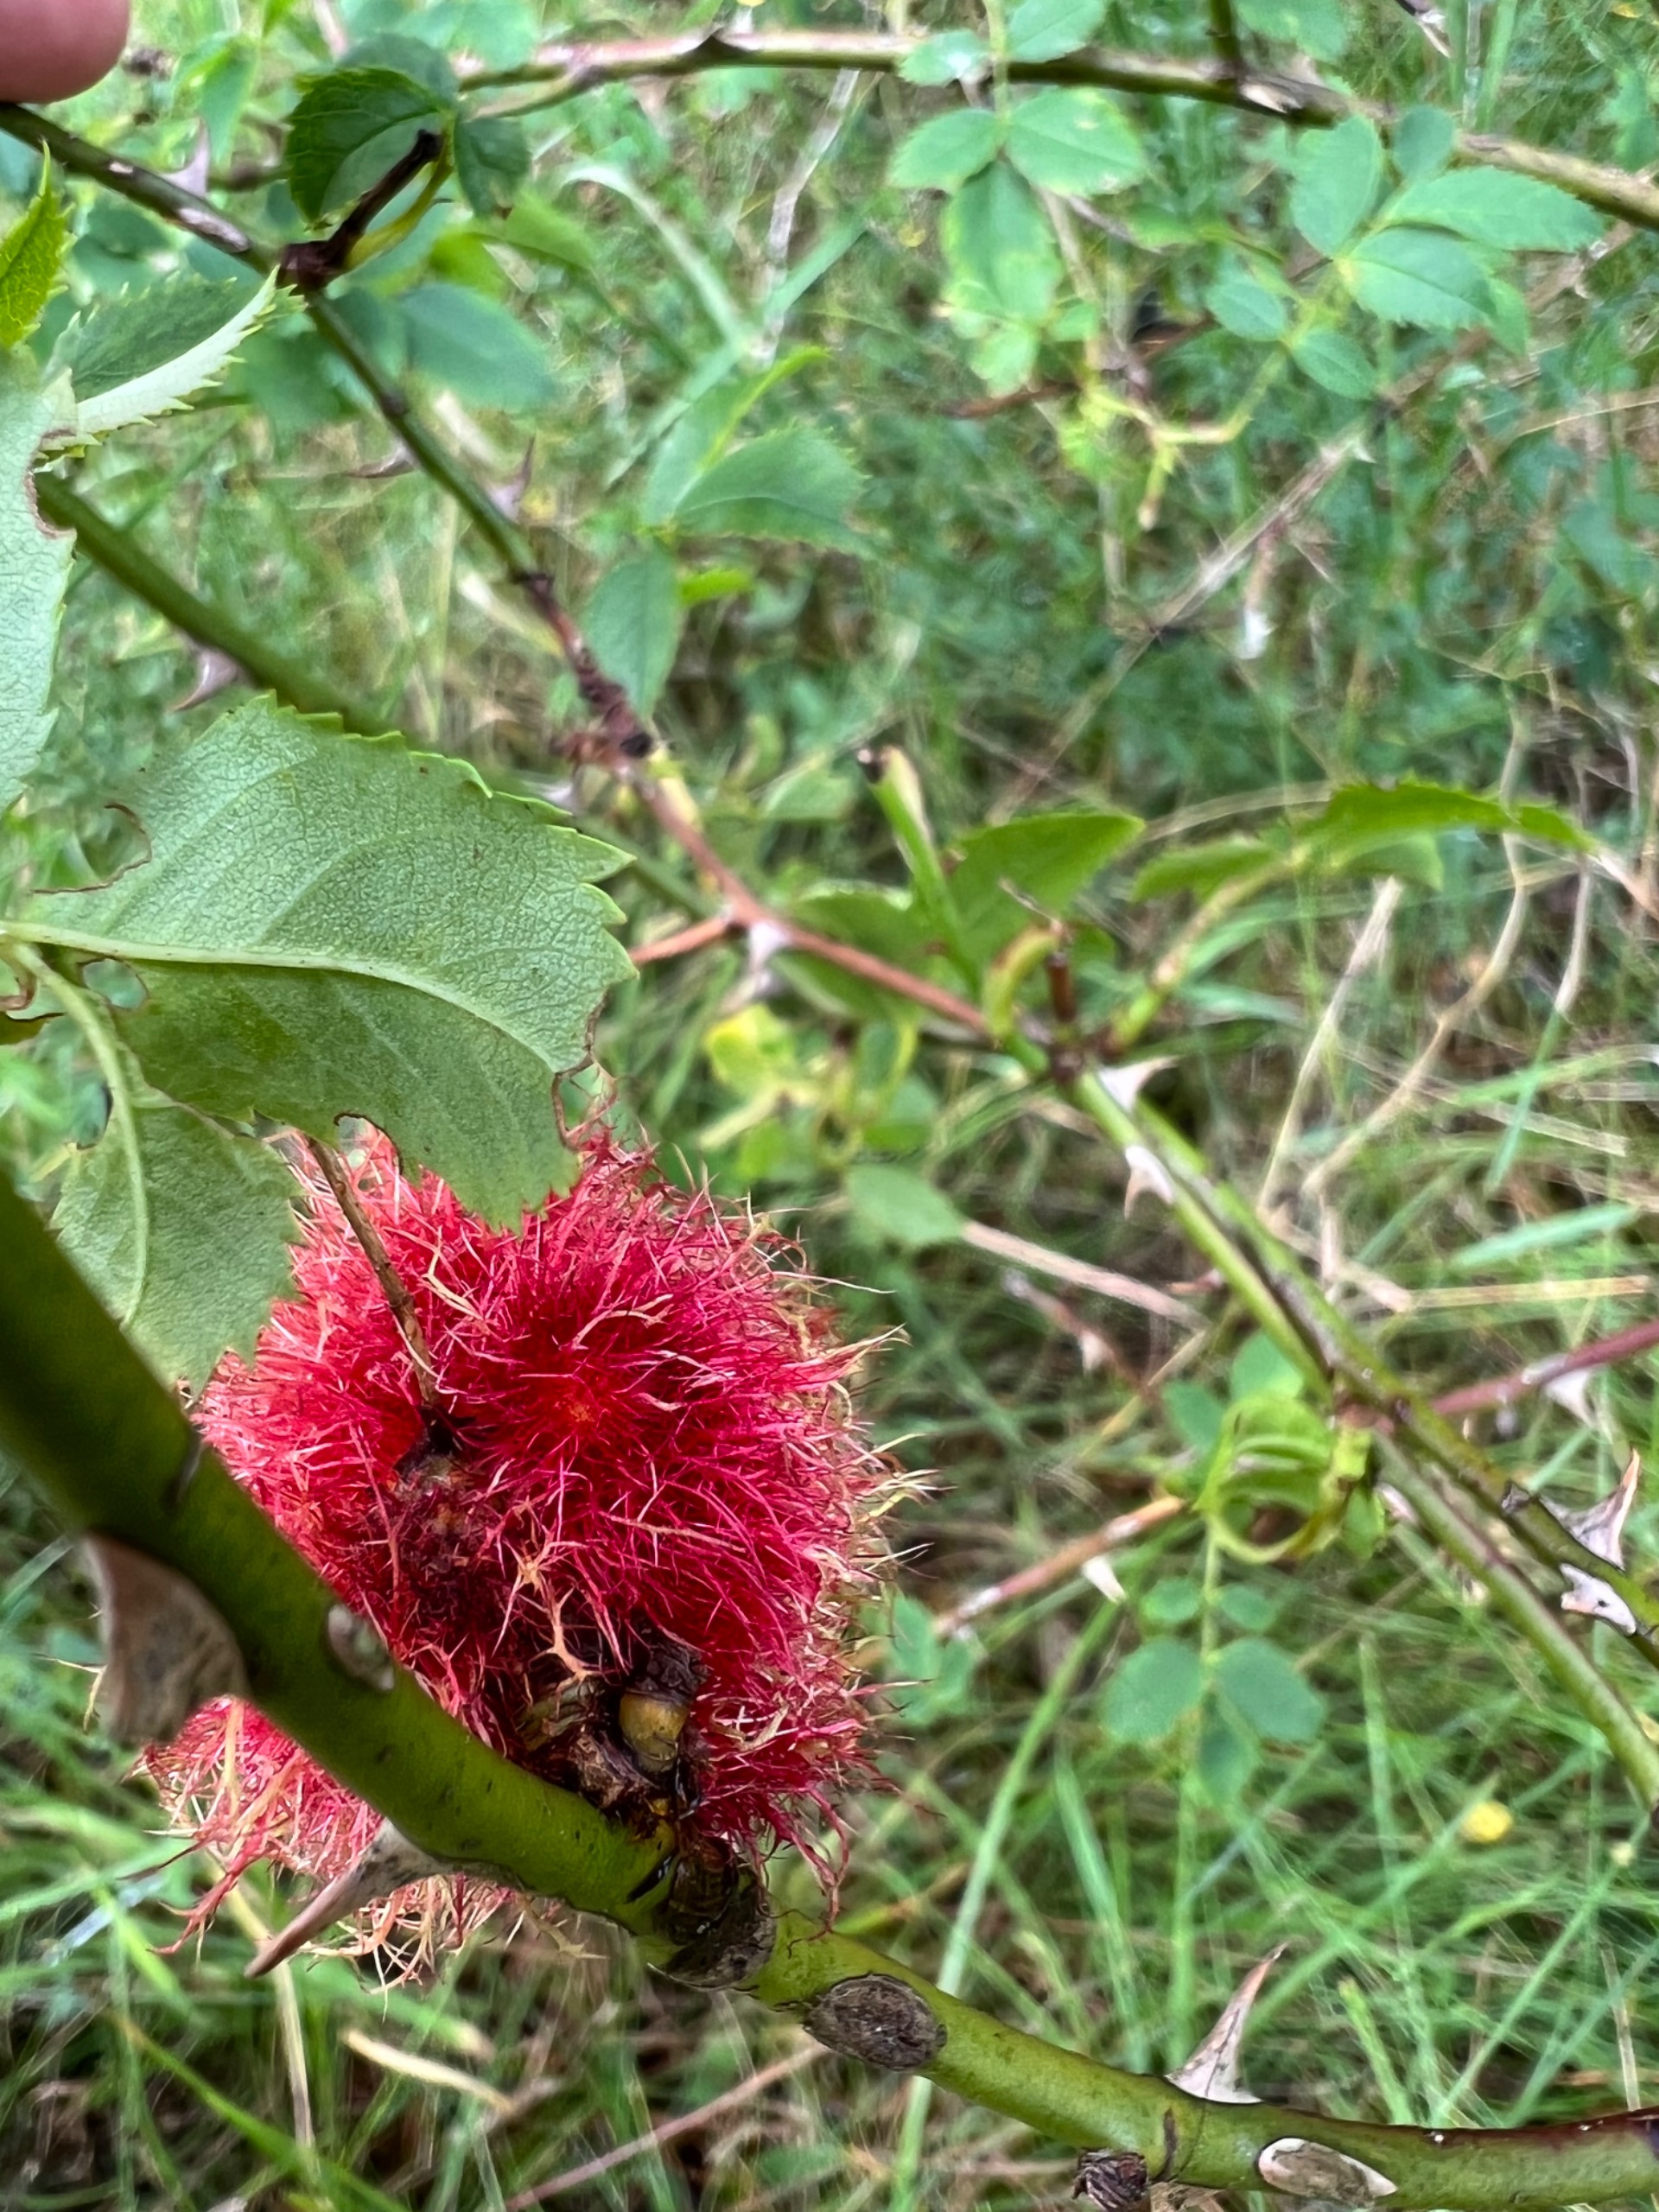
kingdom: Animalia
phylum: Arthropoda
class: Insecta
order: Hymenoptera
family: Cynipidae
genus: Diplolepis
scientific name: Diplolepis rosae
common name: Bedeguargalhveps
